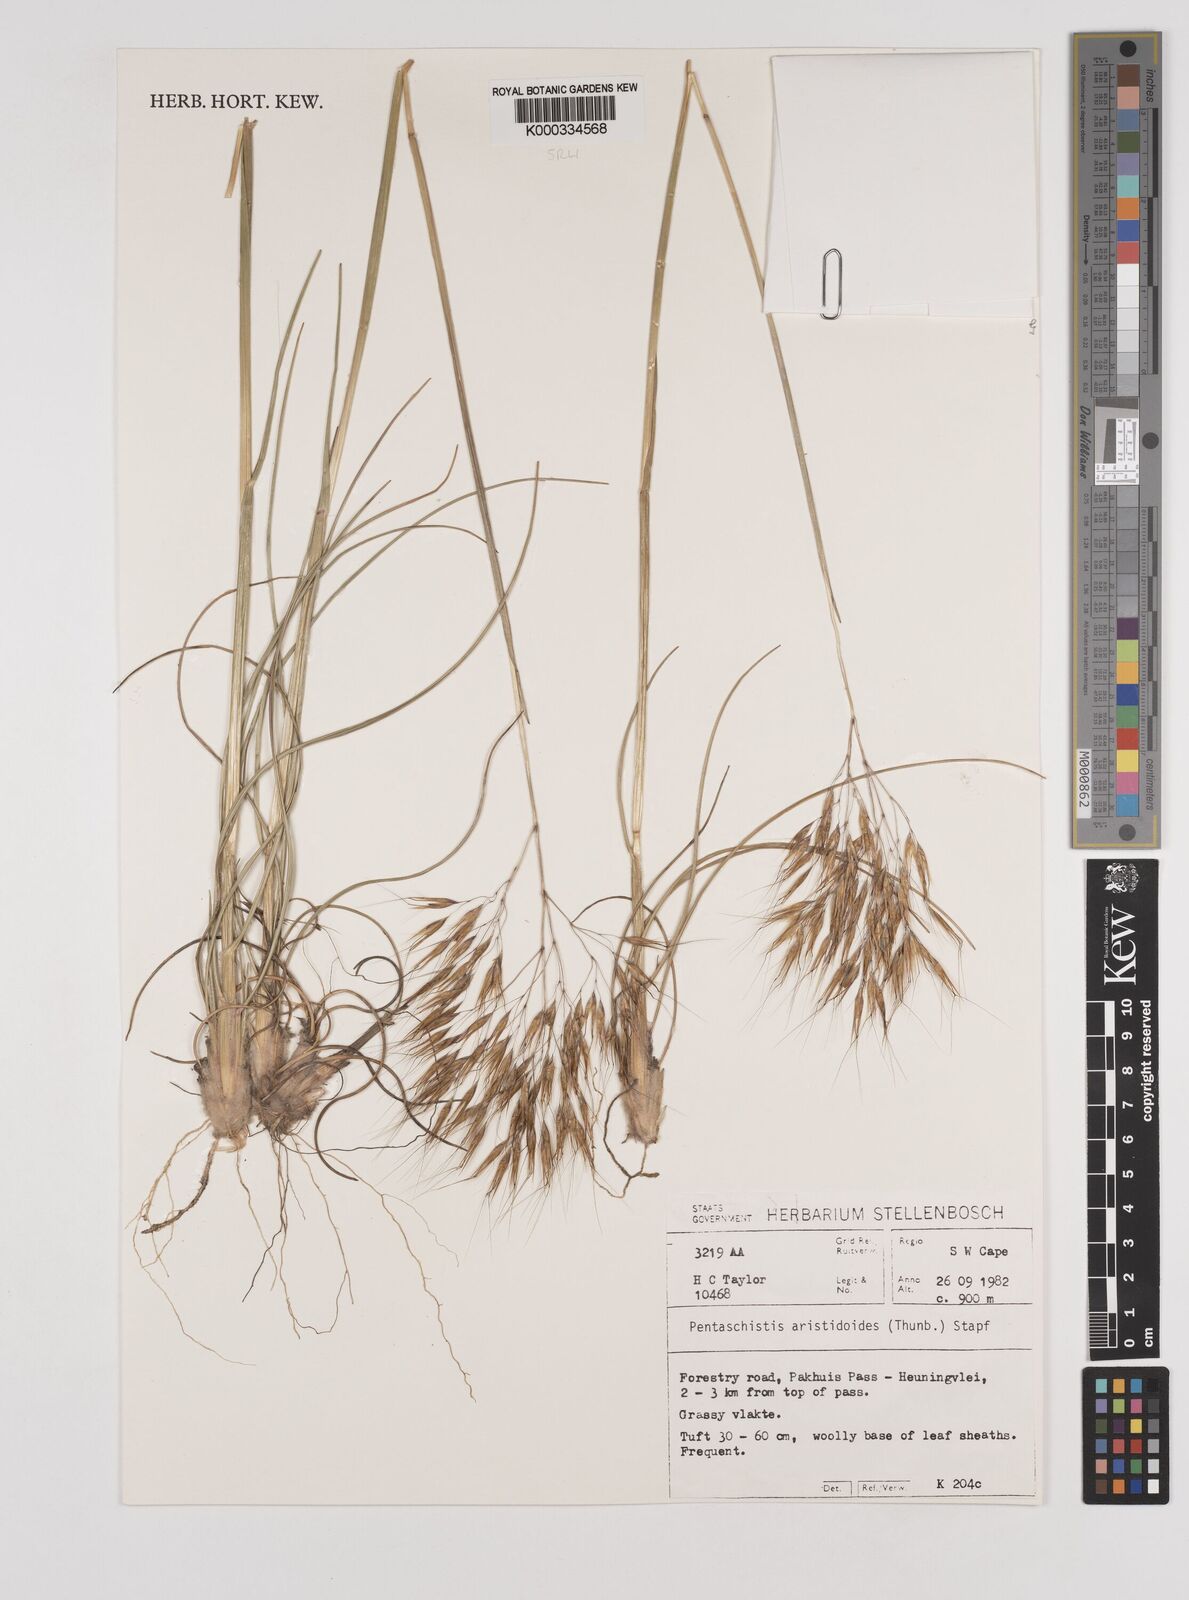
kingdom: Plantae
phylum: Tracheophyta
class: Liliopsida
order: Poales
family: Poaceae
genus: Pentameris
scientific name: Pentameris aristidoides
